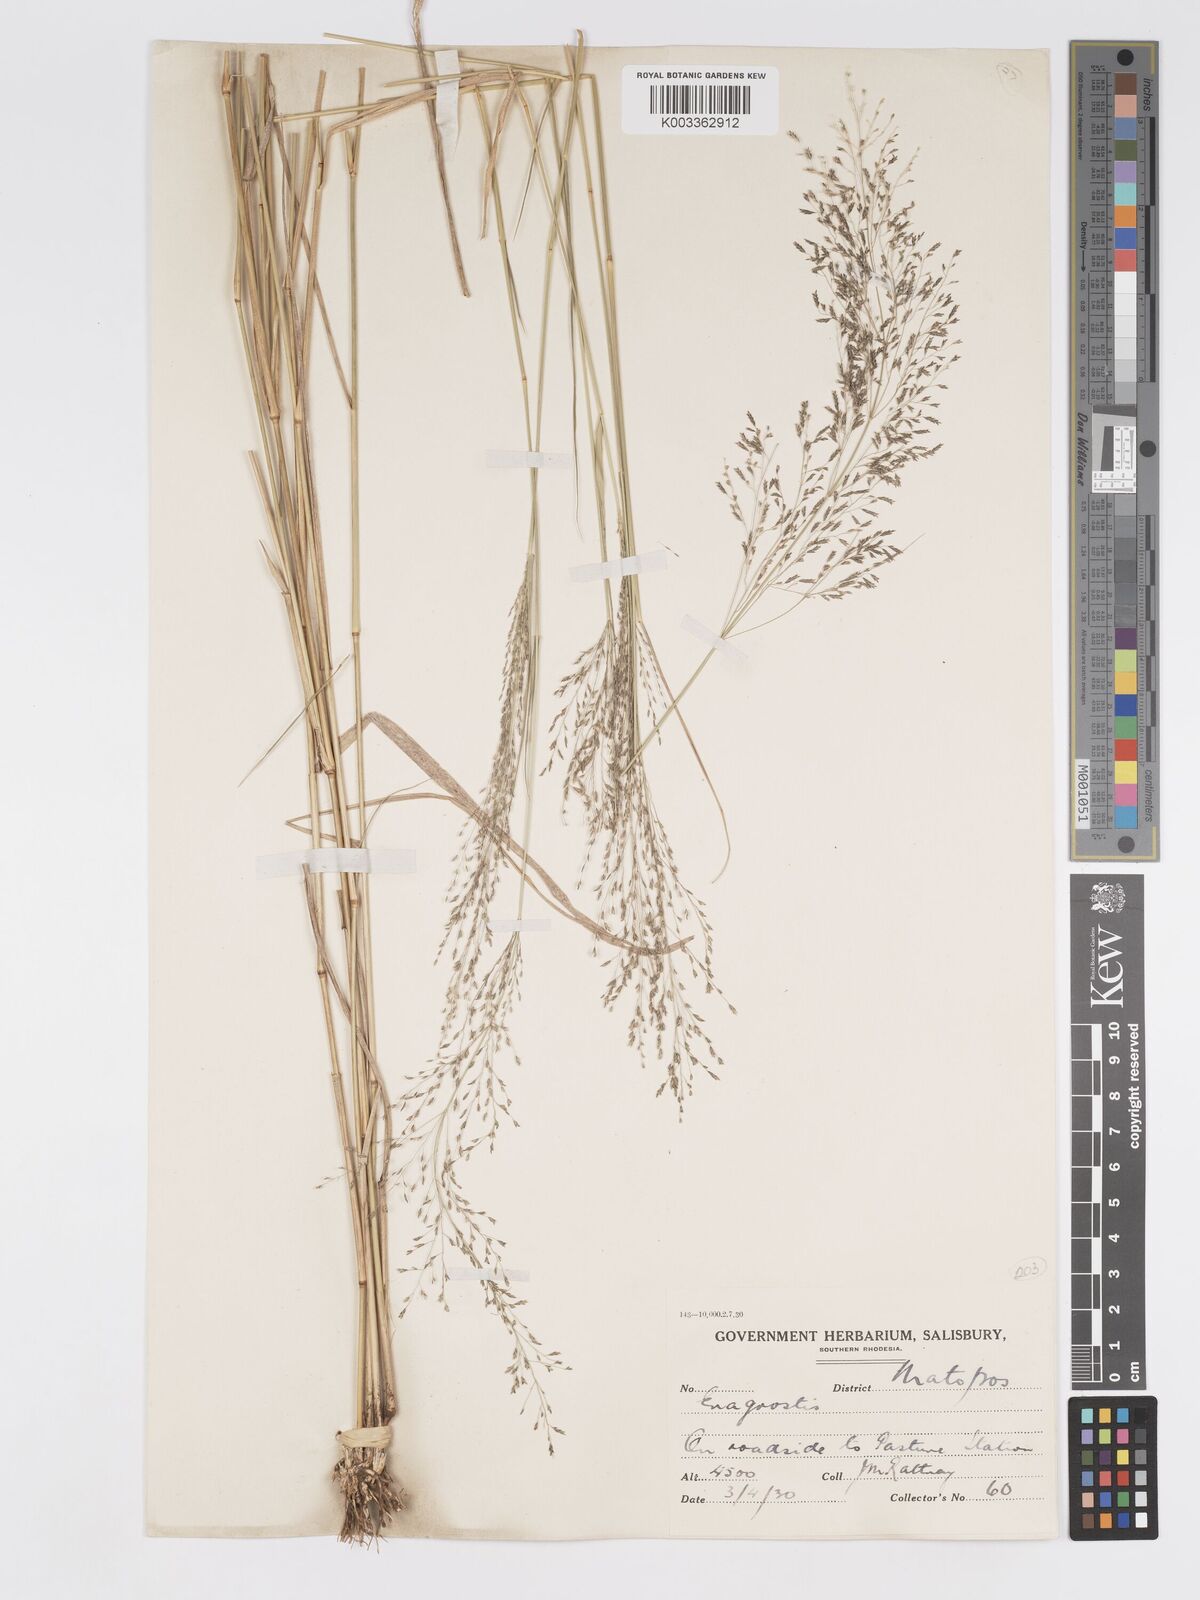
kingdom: Plantae
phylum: Tracheophyta
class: Liliopsida
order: Poales
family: Poaceae
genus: Eragrostis
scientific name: Eragrostis cylindriflora
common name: Cylinderflower lovegrass
